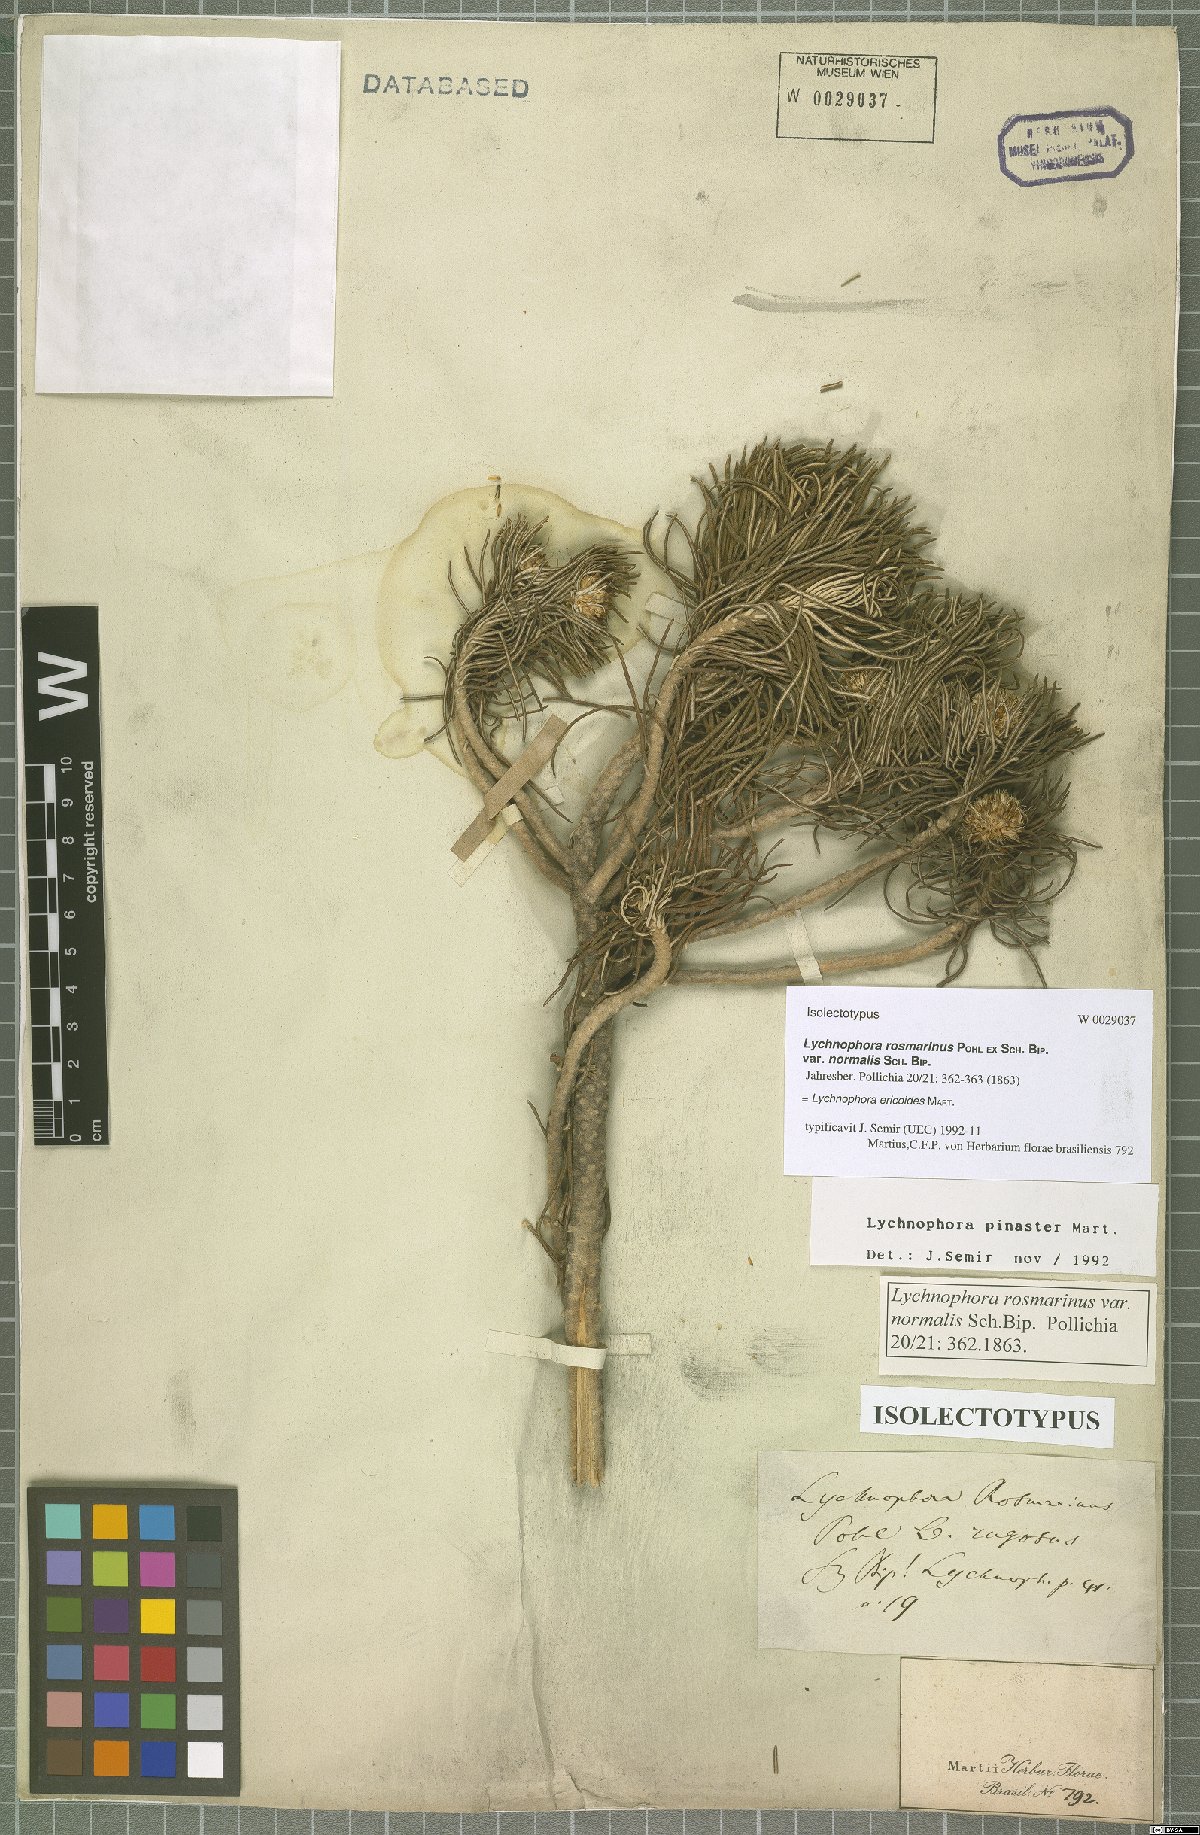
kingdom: Plantae
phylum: Tracheophyta
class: Magnoliopsida
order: Asterales
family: Asteraceae
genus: Lychnophora
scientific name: Lychnophora ericoides
